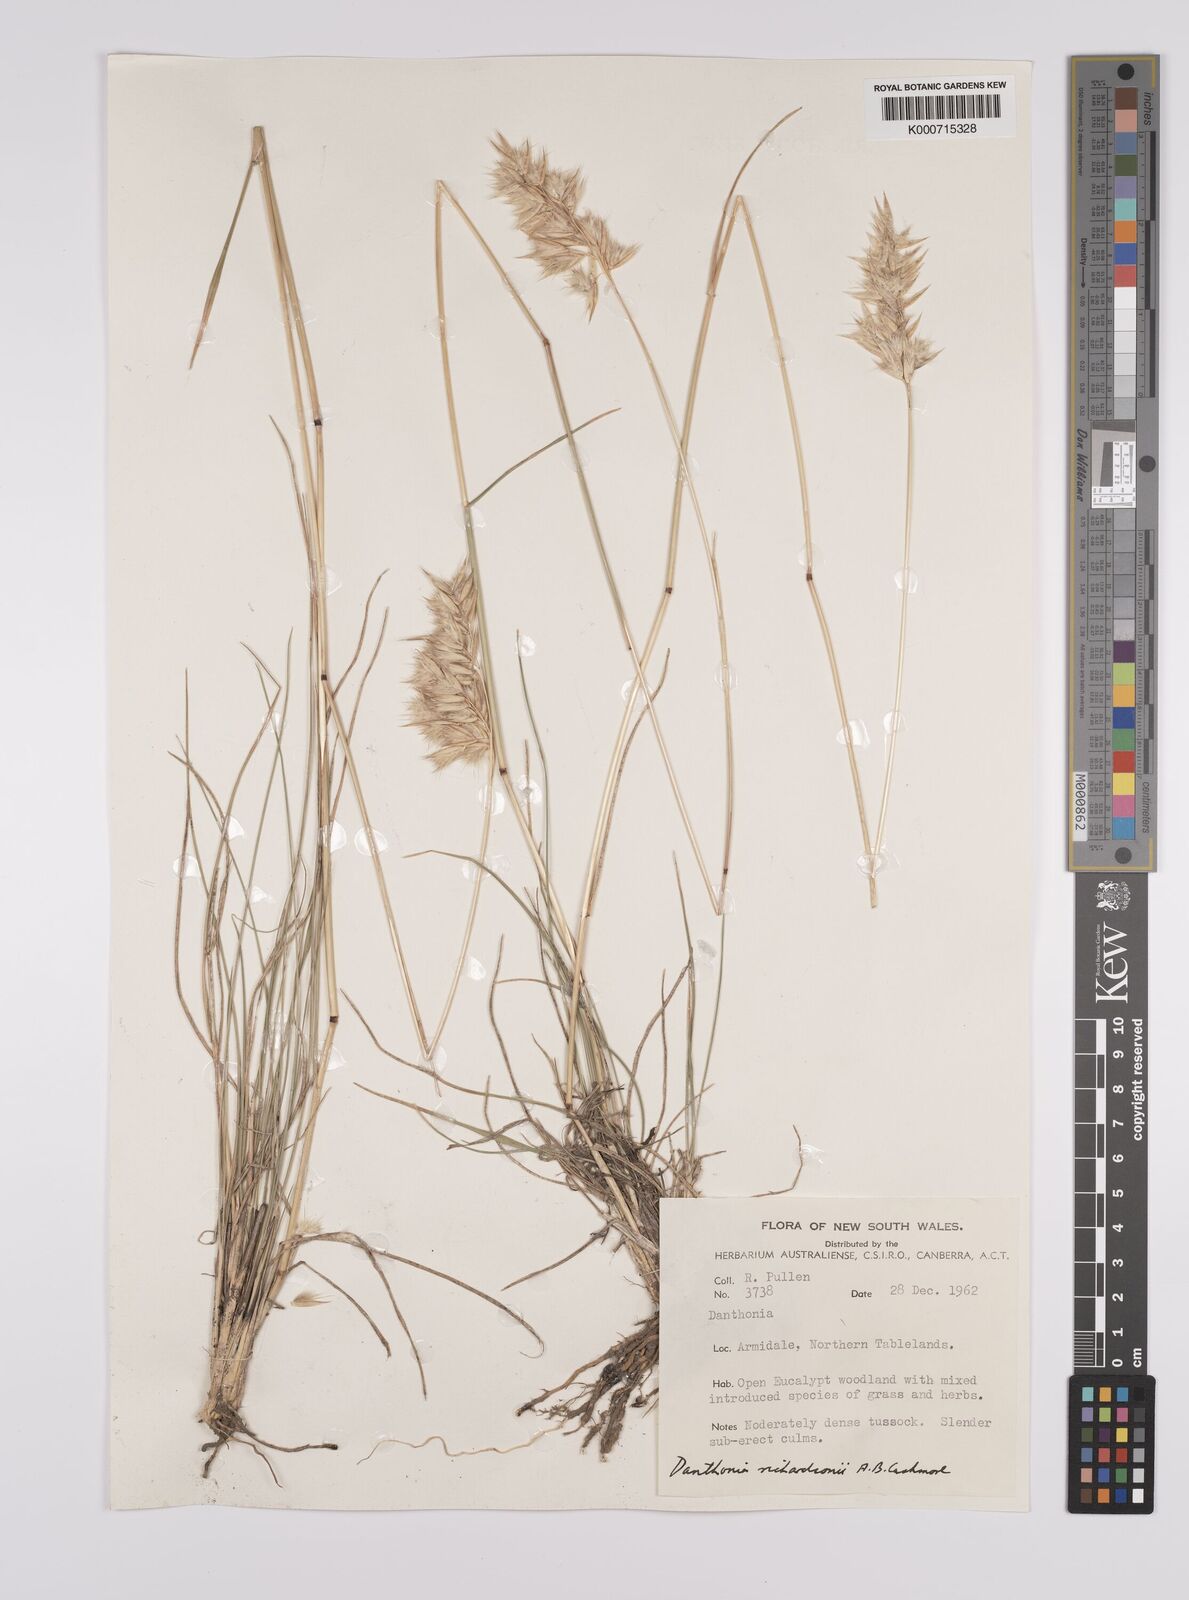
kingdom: Plantae
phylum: Tracheophyta
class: Liliopsida
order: Poales
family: Poaceae
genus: Rytidosperma
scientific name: Rytidosperma richardsonii
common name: Straw wallaby-grass
